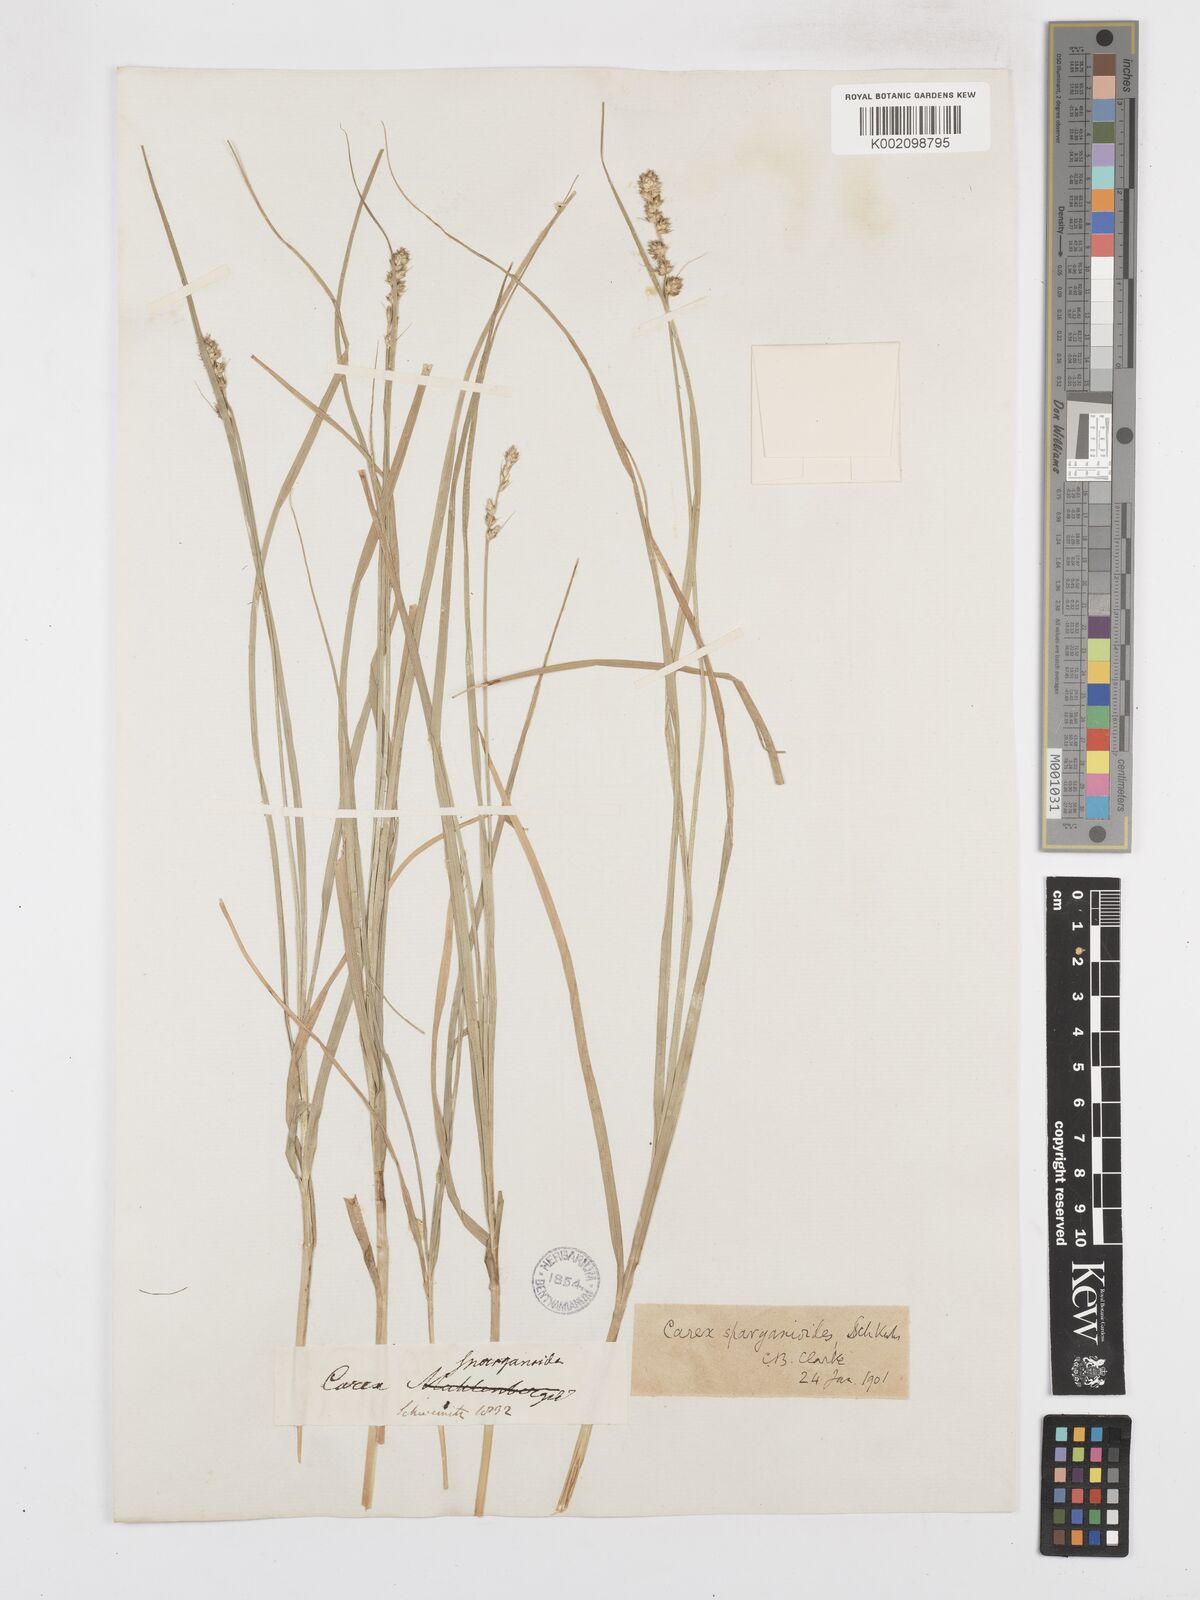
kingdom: Plantae
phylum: Tracheophyta
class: Liliopsida
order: Poales
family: Cyperaceae
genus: Carex
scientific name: Carex sparganioides
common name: Burreed sedge
